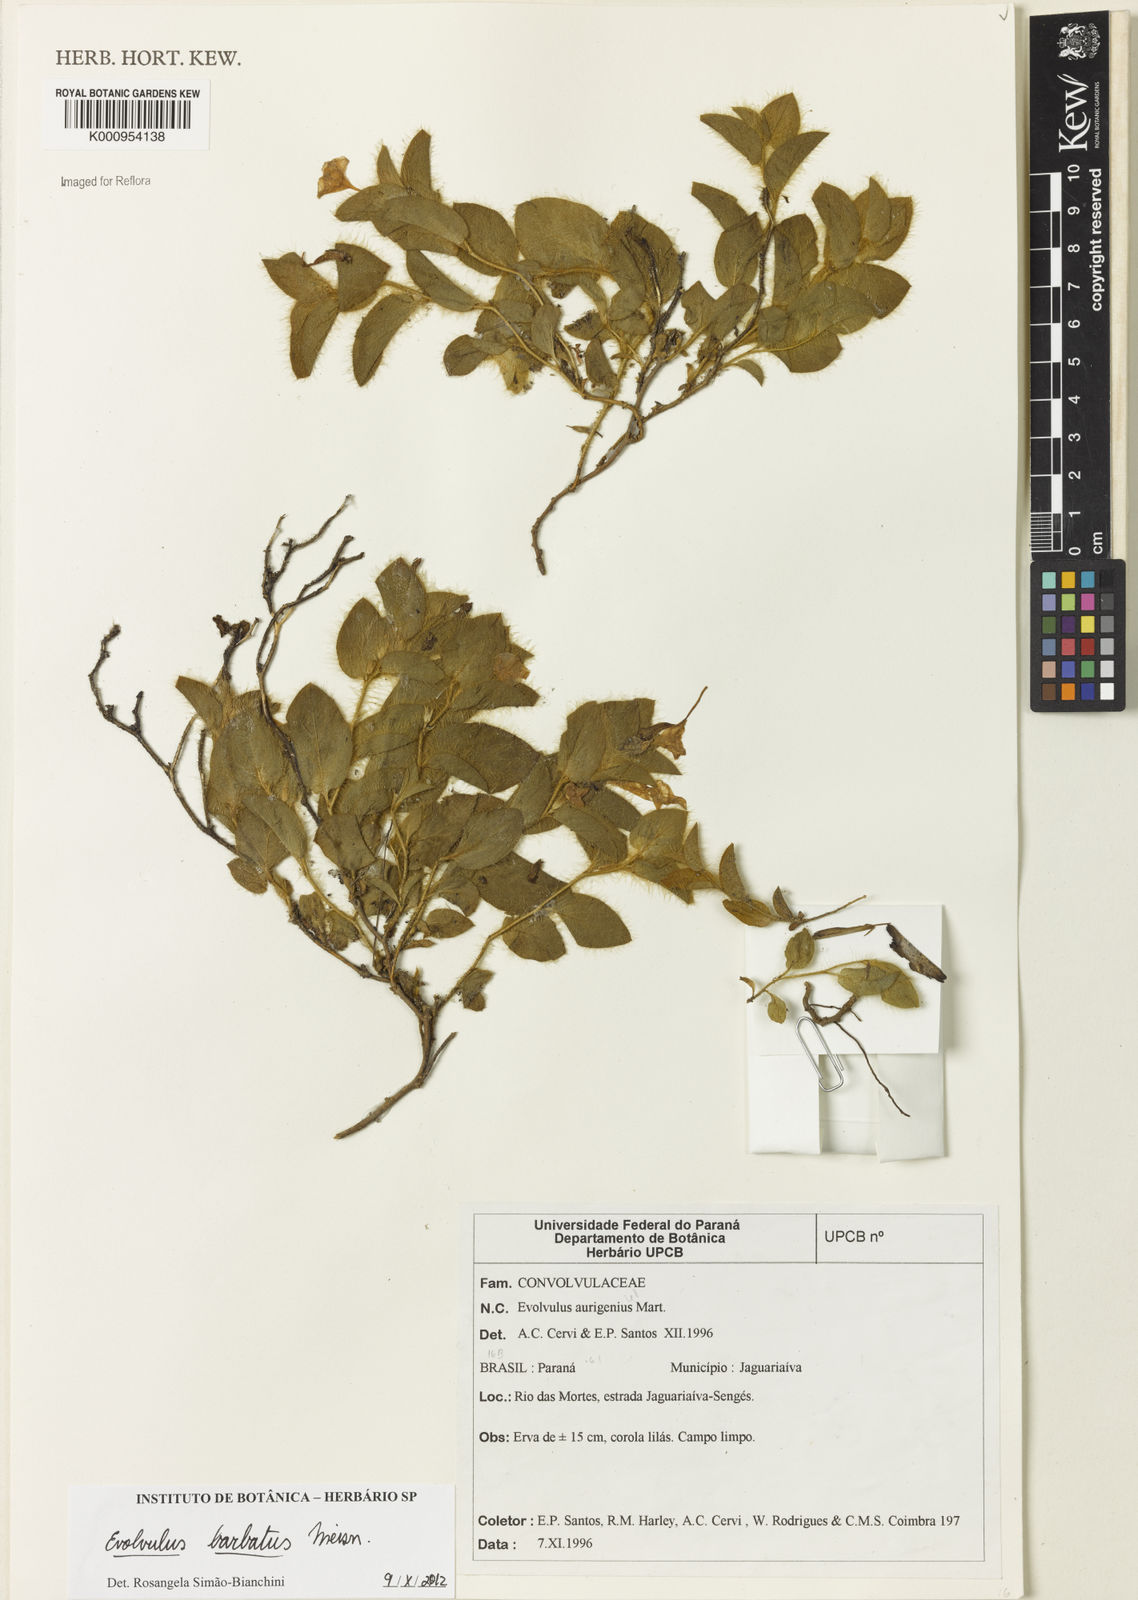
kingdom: Plantae
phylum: Tracheophyta
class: Magnoliopsida
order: Solanales
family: Convolvulaceae
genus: Evolvulus
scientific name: Evolvulus barbatus
